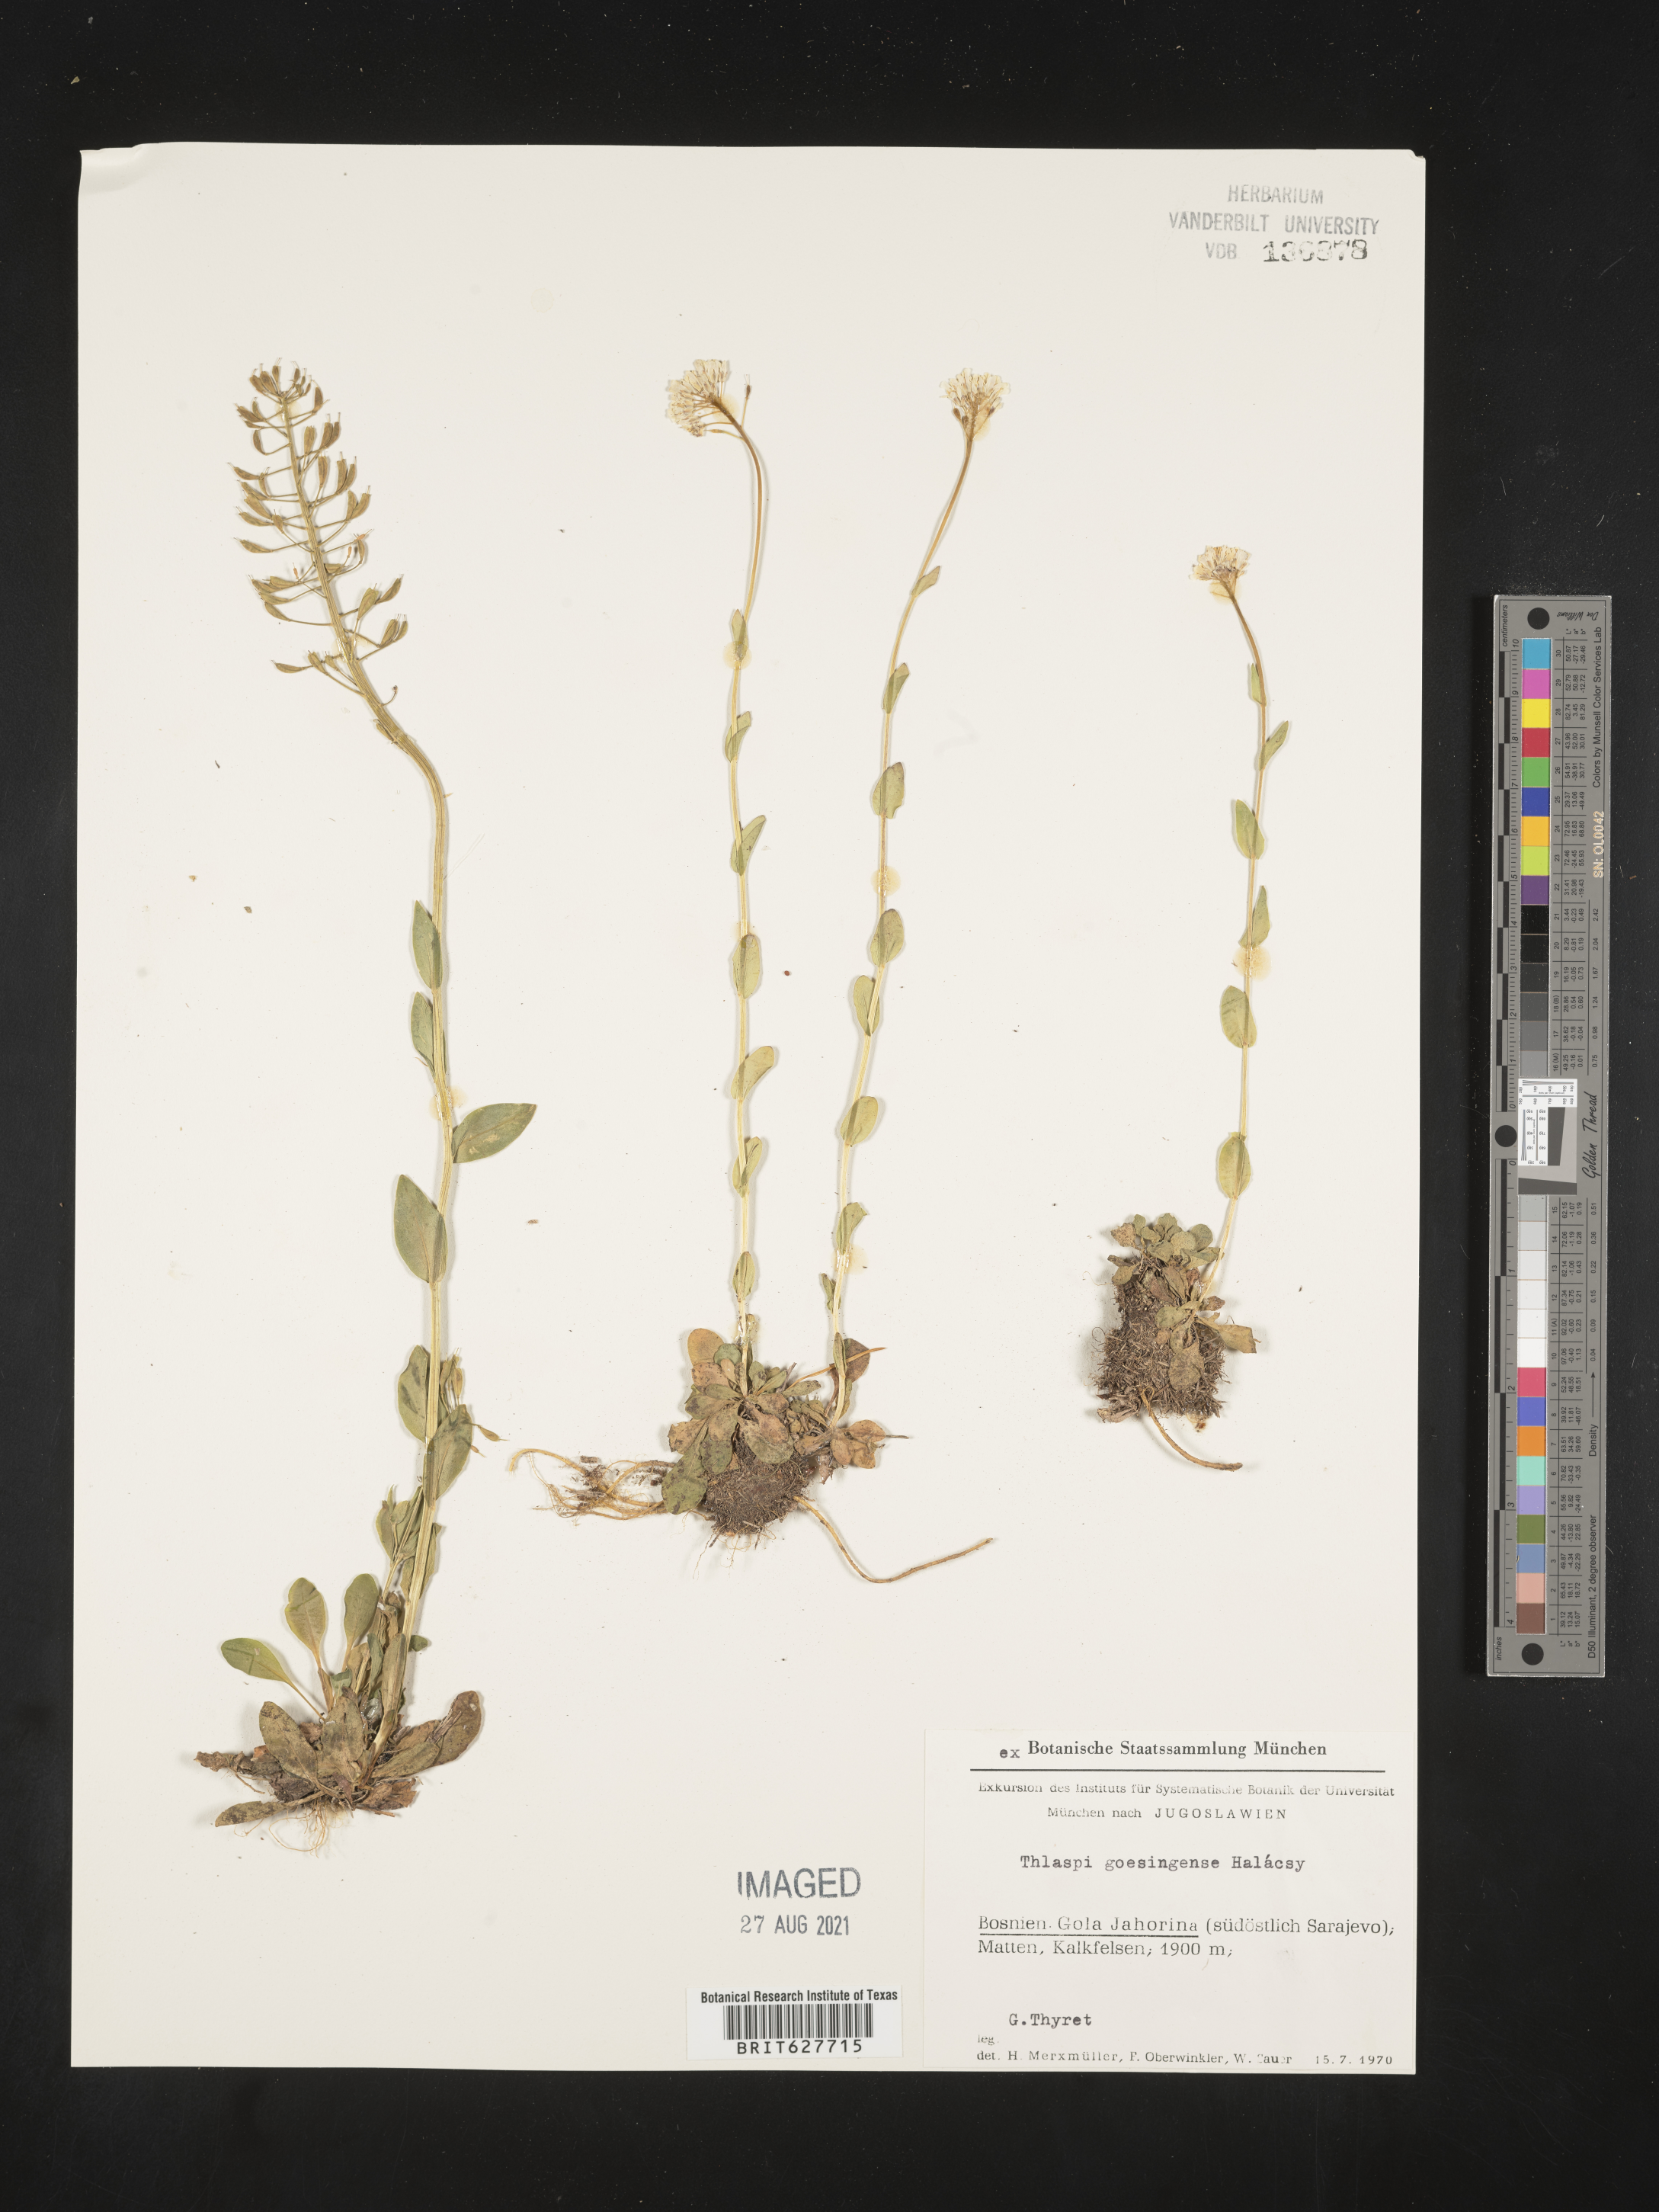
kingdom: Plantae
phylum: Tracheophyta
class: Magnoliopsida
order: Brassicales
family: Brassicaceae
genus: Noccaea
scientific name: Noccaea goesingensis
